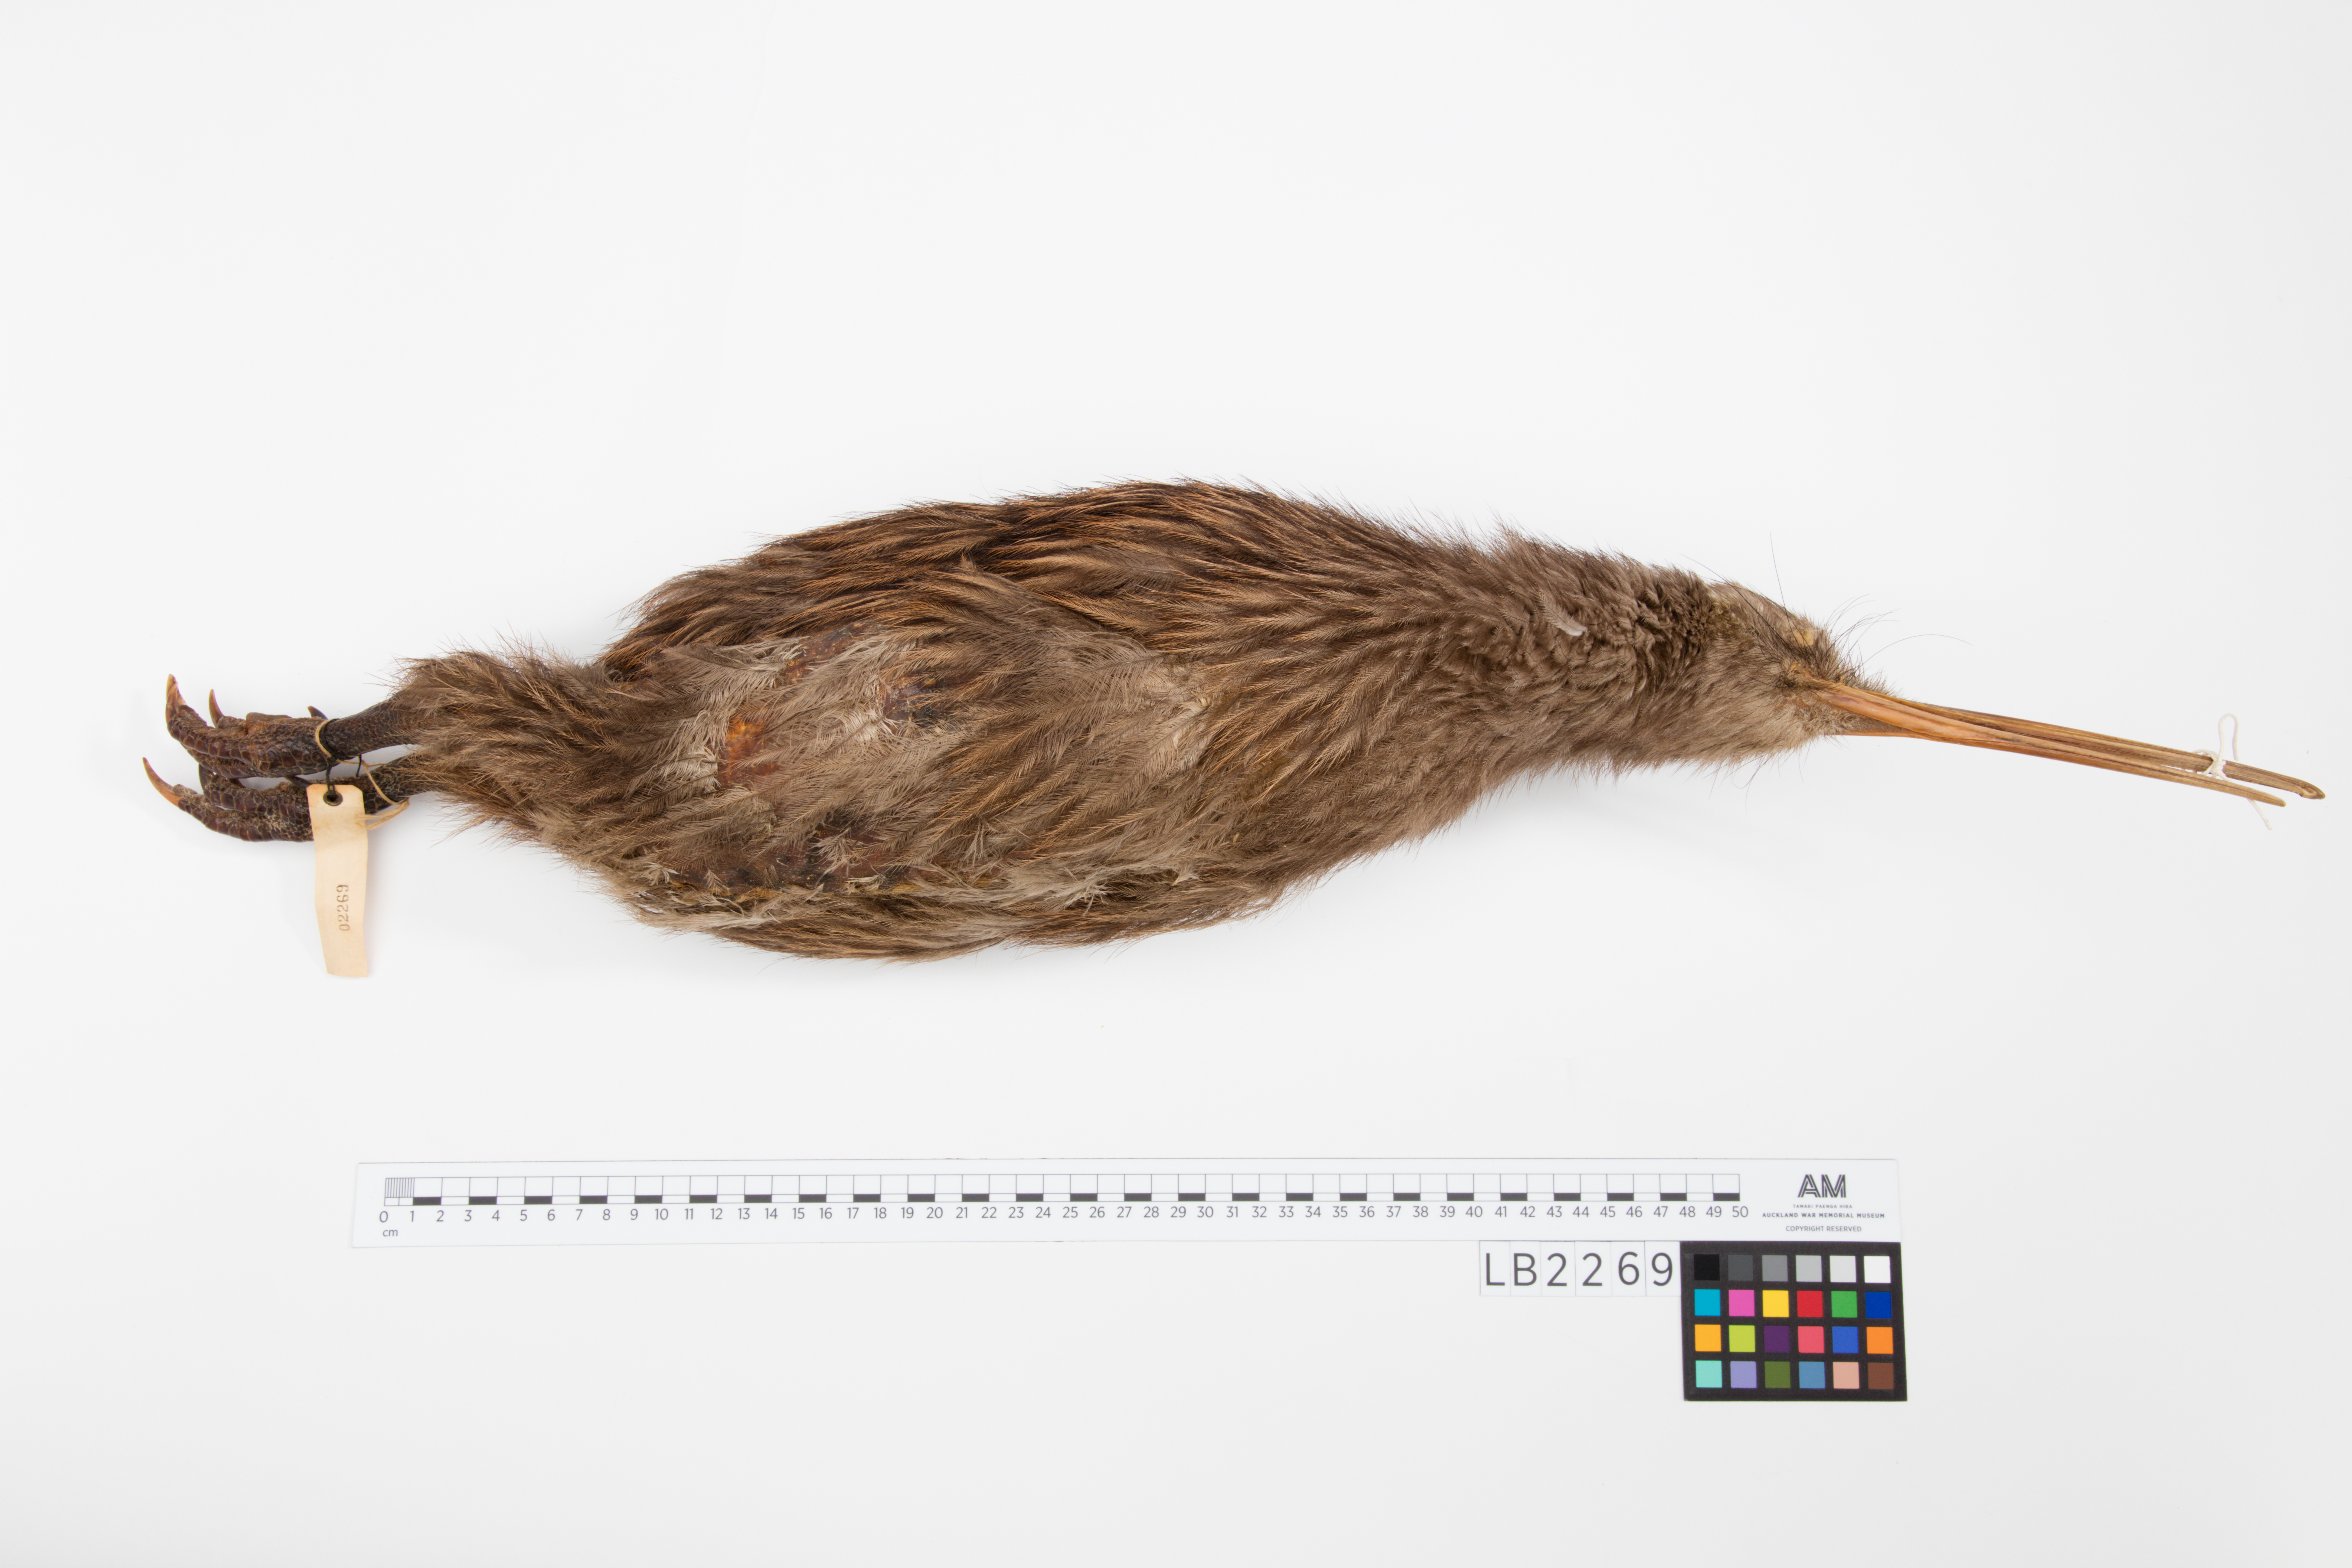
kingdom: Animalia
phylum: Chordata
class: Aves
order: Apterygiformes
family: Apterygidae
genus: Apteryx
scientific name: Apteryx mantelli
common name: North island brown kiwi
